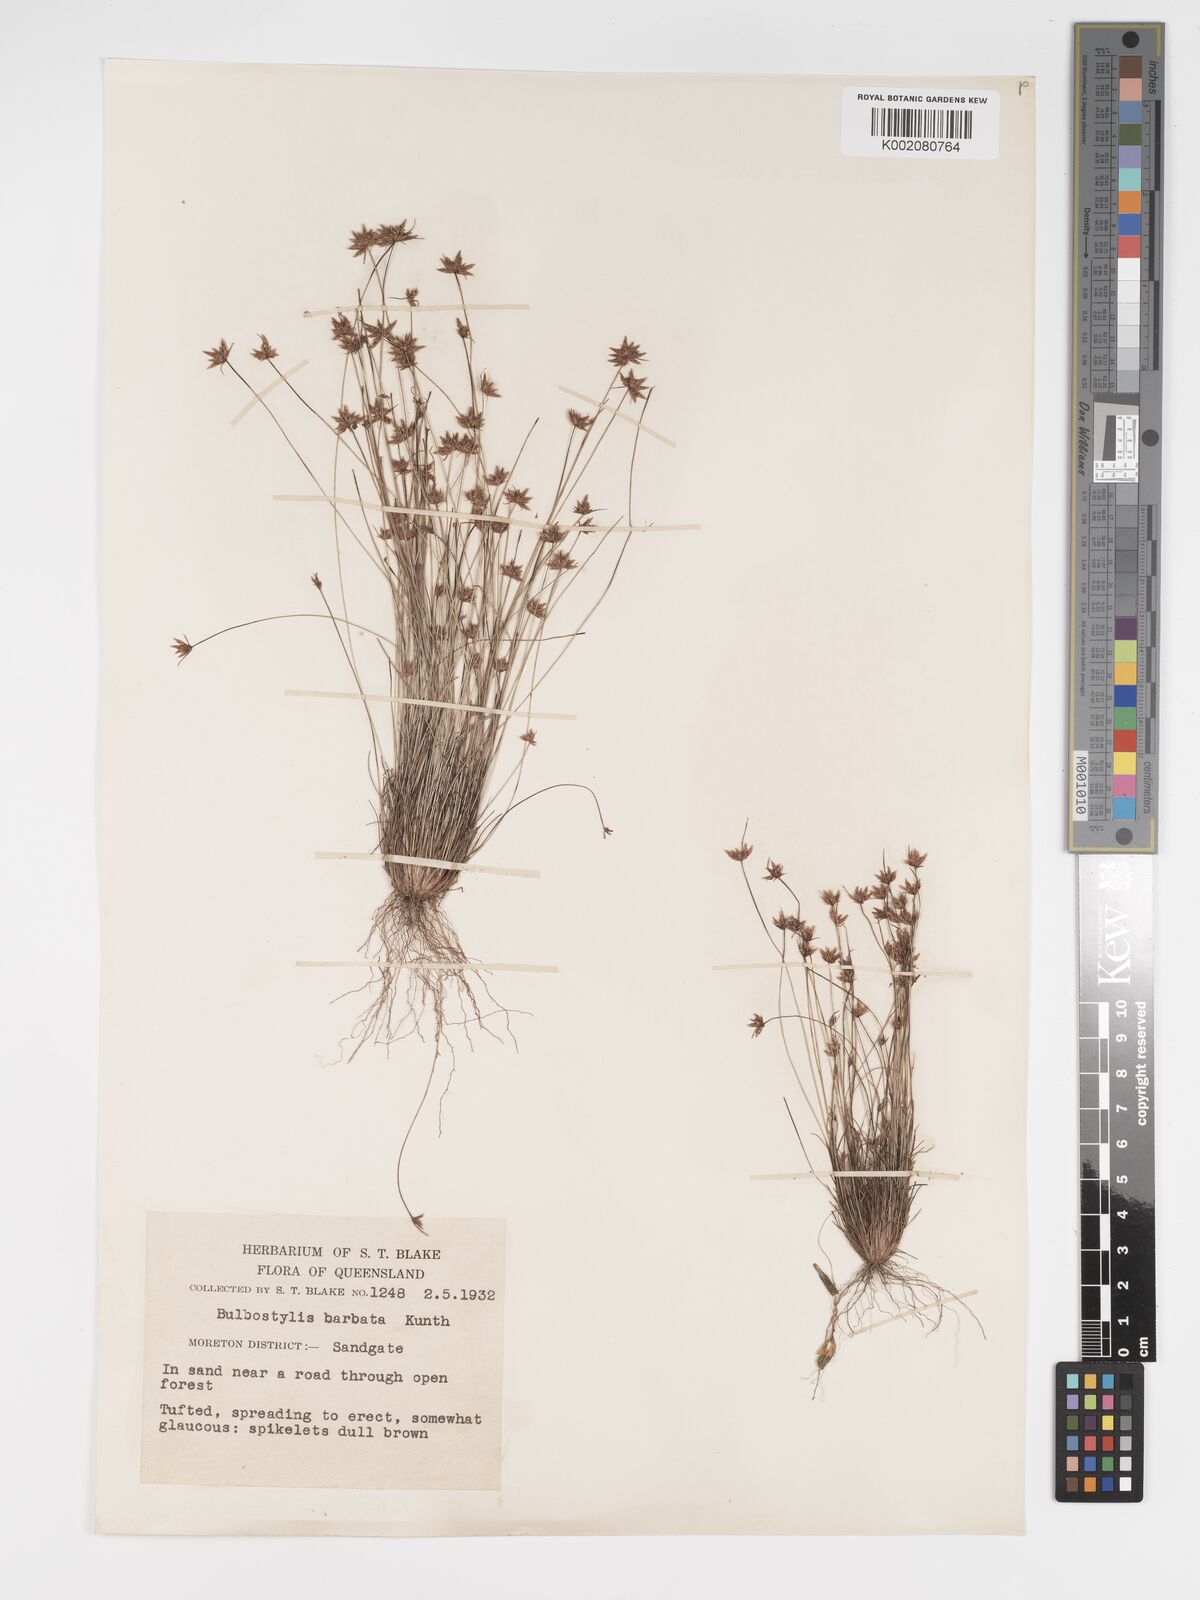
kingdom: Plantae
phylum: Tracheophyta
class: Liliopsida
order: Poales
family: Cyperaceae
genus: Bulbostylis
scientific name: Bulbostylis barbata
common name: Watergrass
